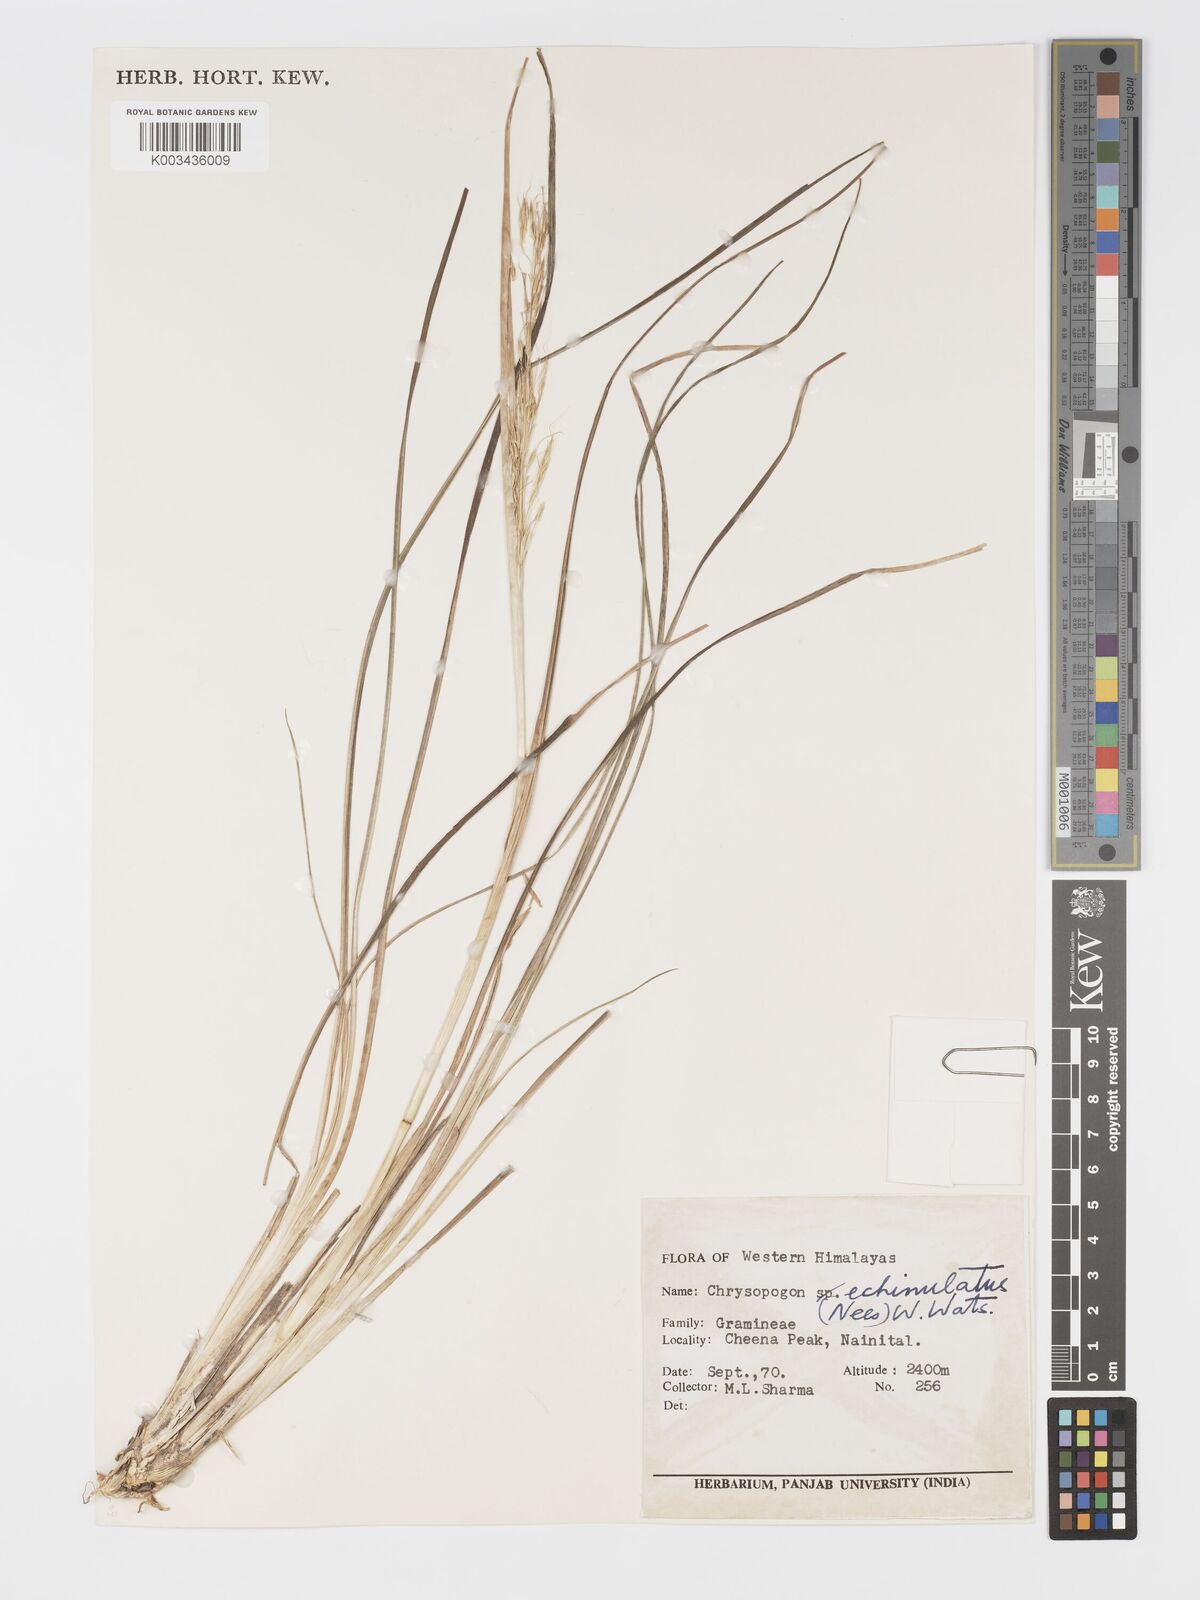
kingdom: Plantae
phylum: Tracheophyta
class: Liliopsida
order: Poales
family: Poaceae
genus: Chrysopogon
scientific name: Chrysopogon gryllus
